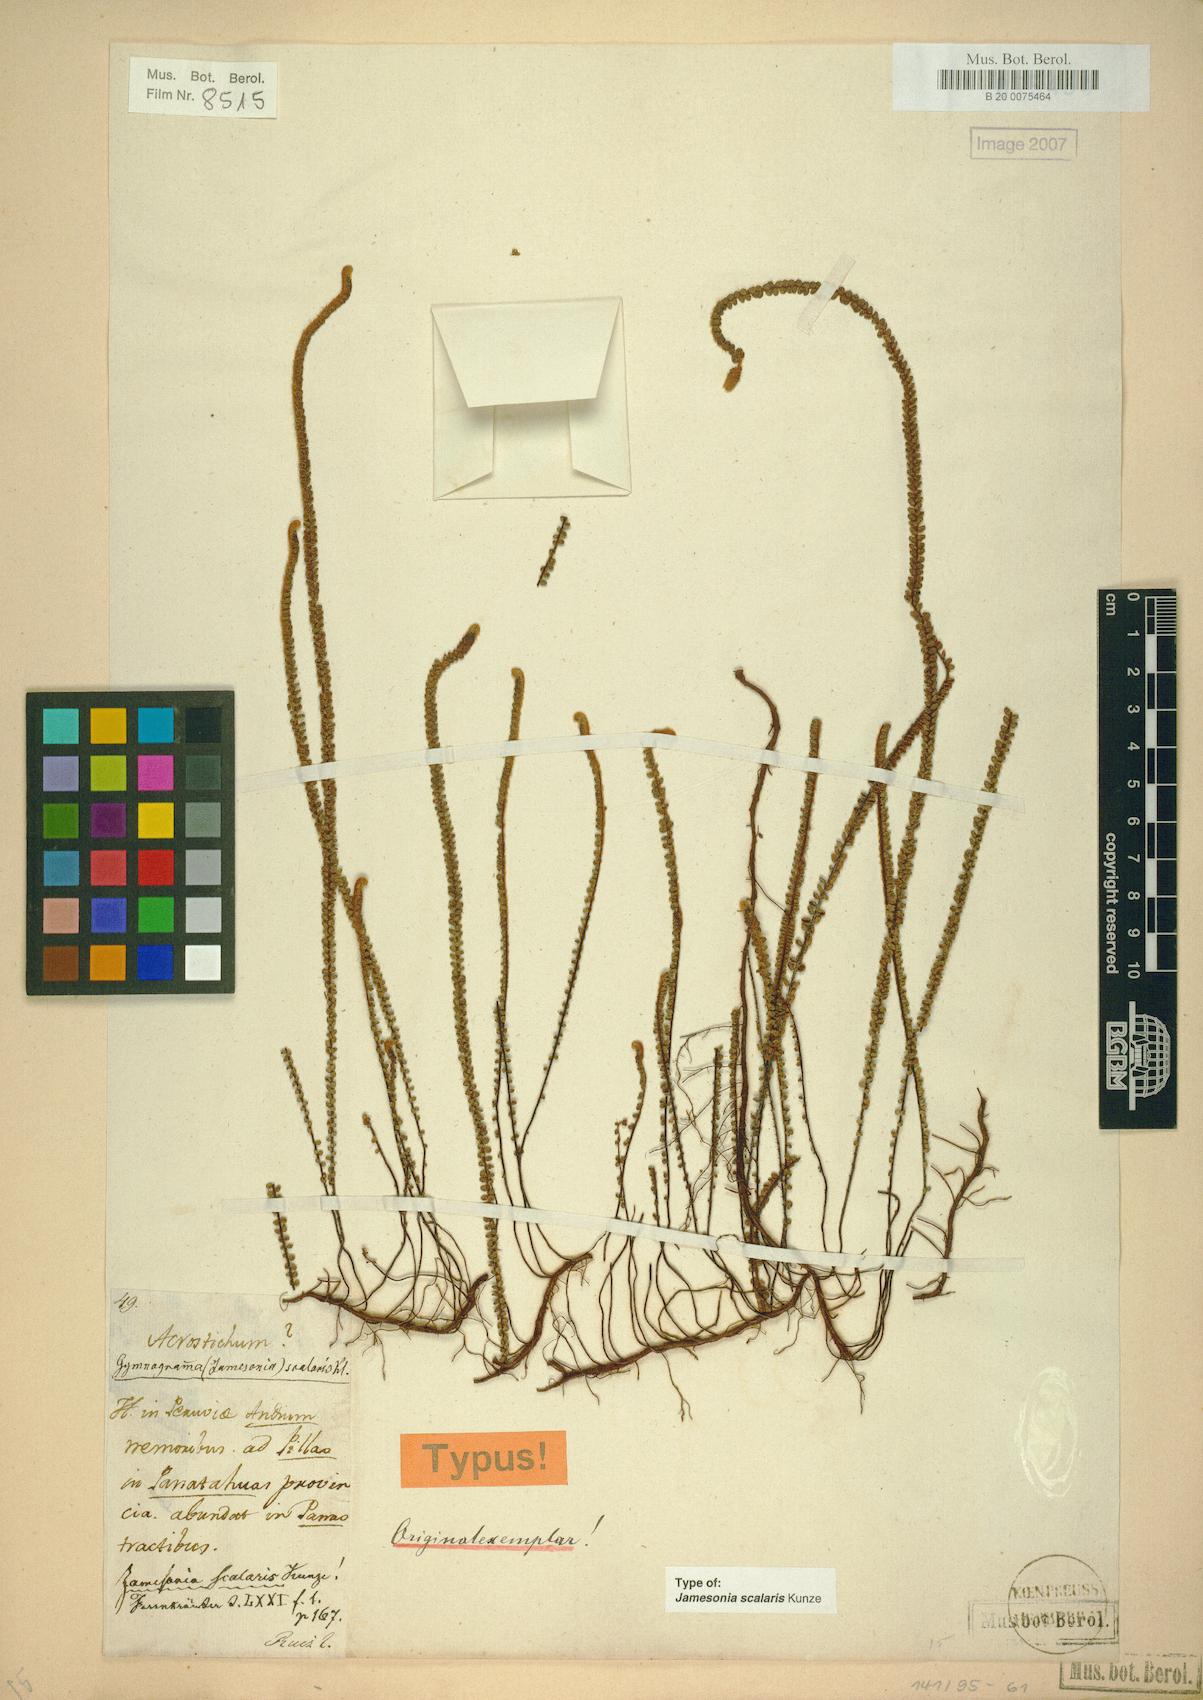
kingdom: Plantae
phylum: Tracheophyta
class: Polypodiopsida
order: Polypodiales
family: Pteridaceae
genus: Jamesonia
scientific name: Jamesonia scalaris
